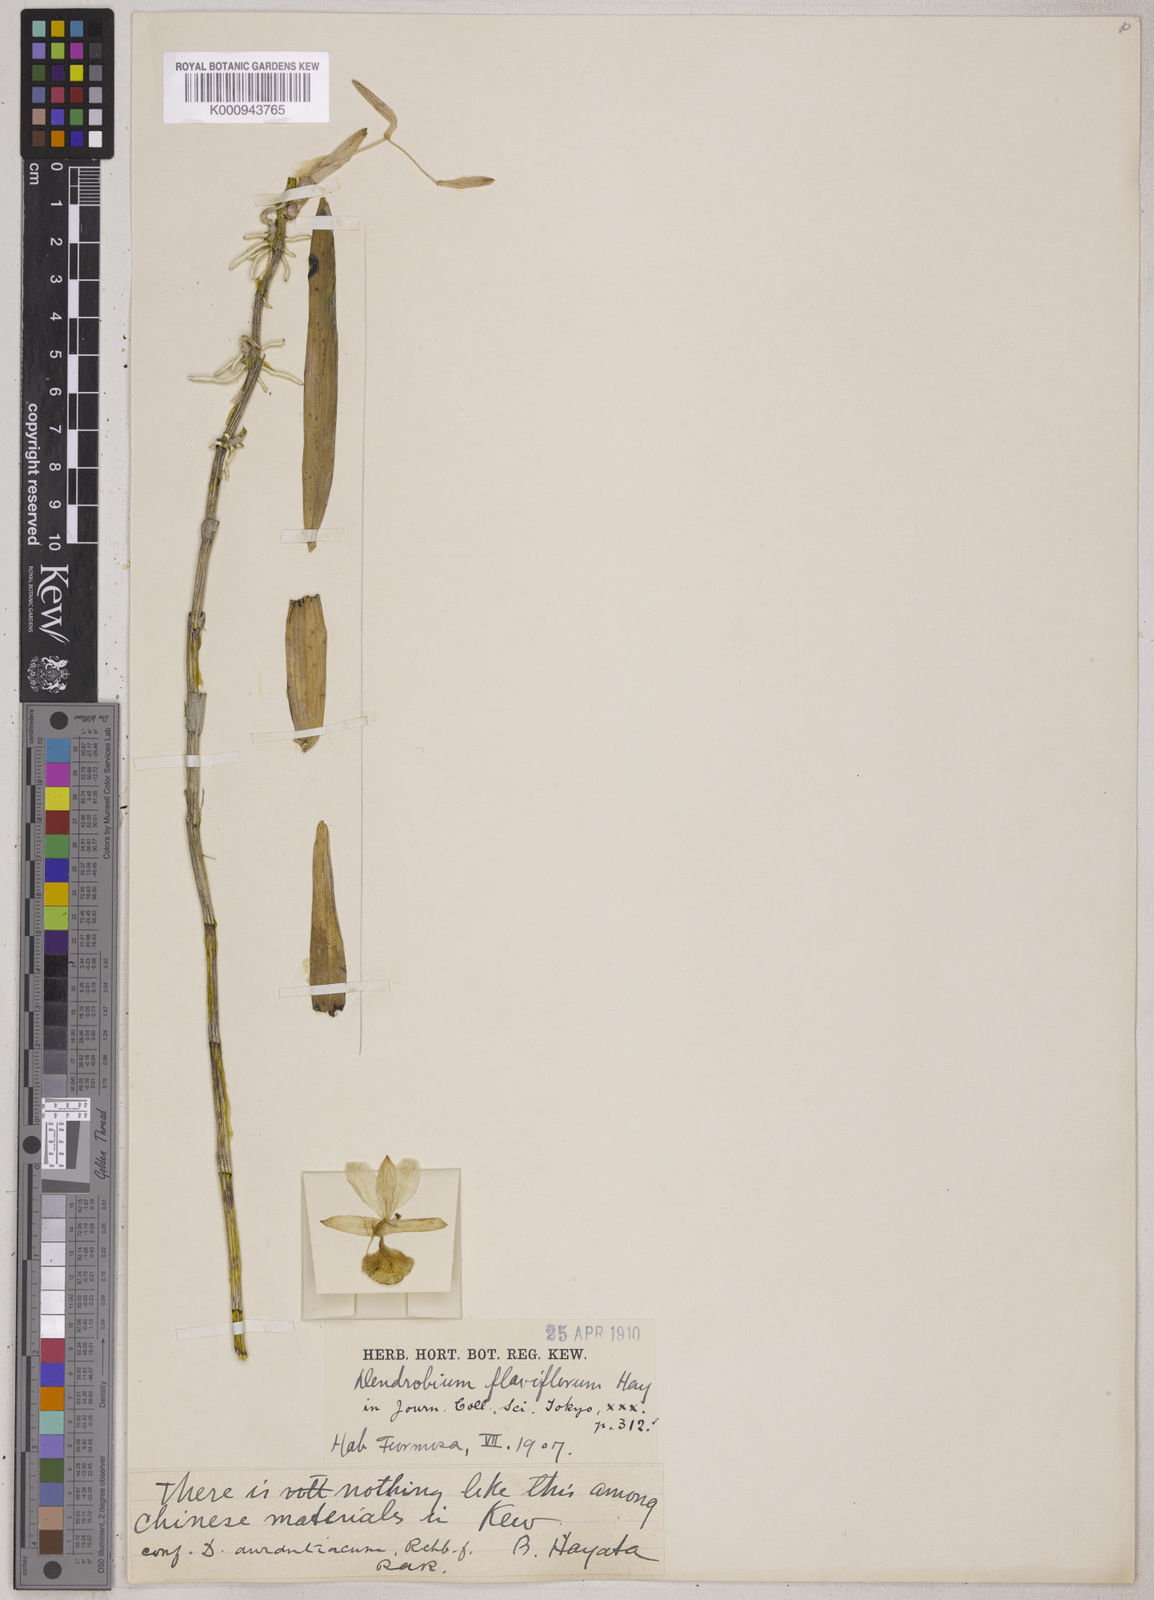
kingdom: Plantae
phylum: Tracheophyta
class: Liliopsida
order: Asparagales
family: Orchidaceae
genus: Dendrobium
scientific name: Dendrobium chryseum
